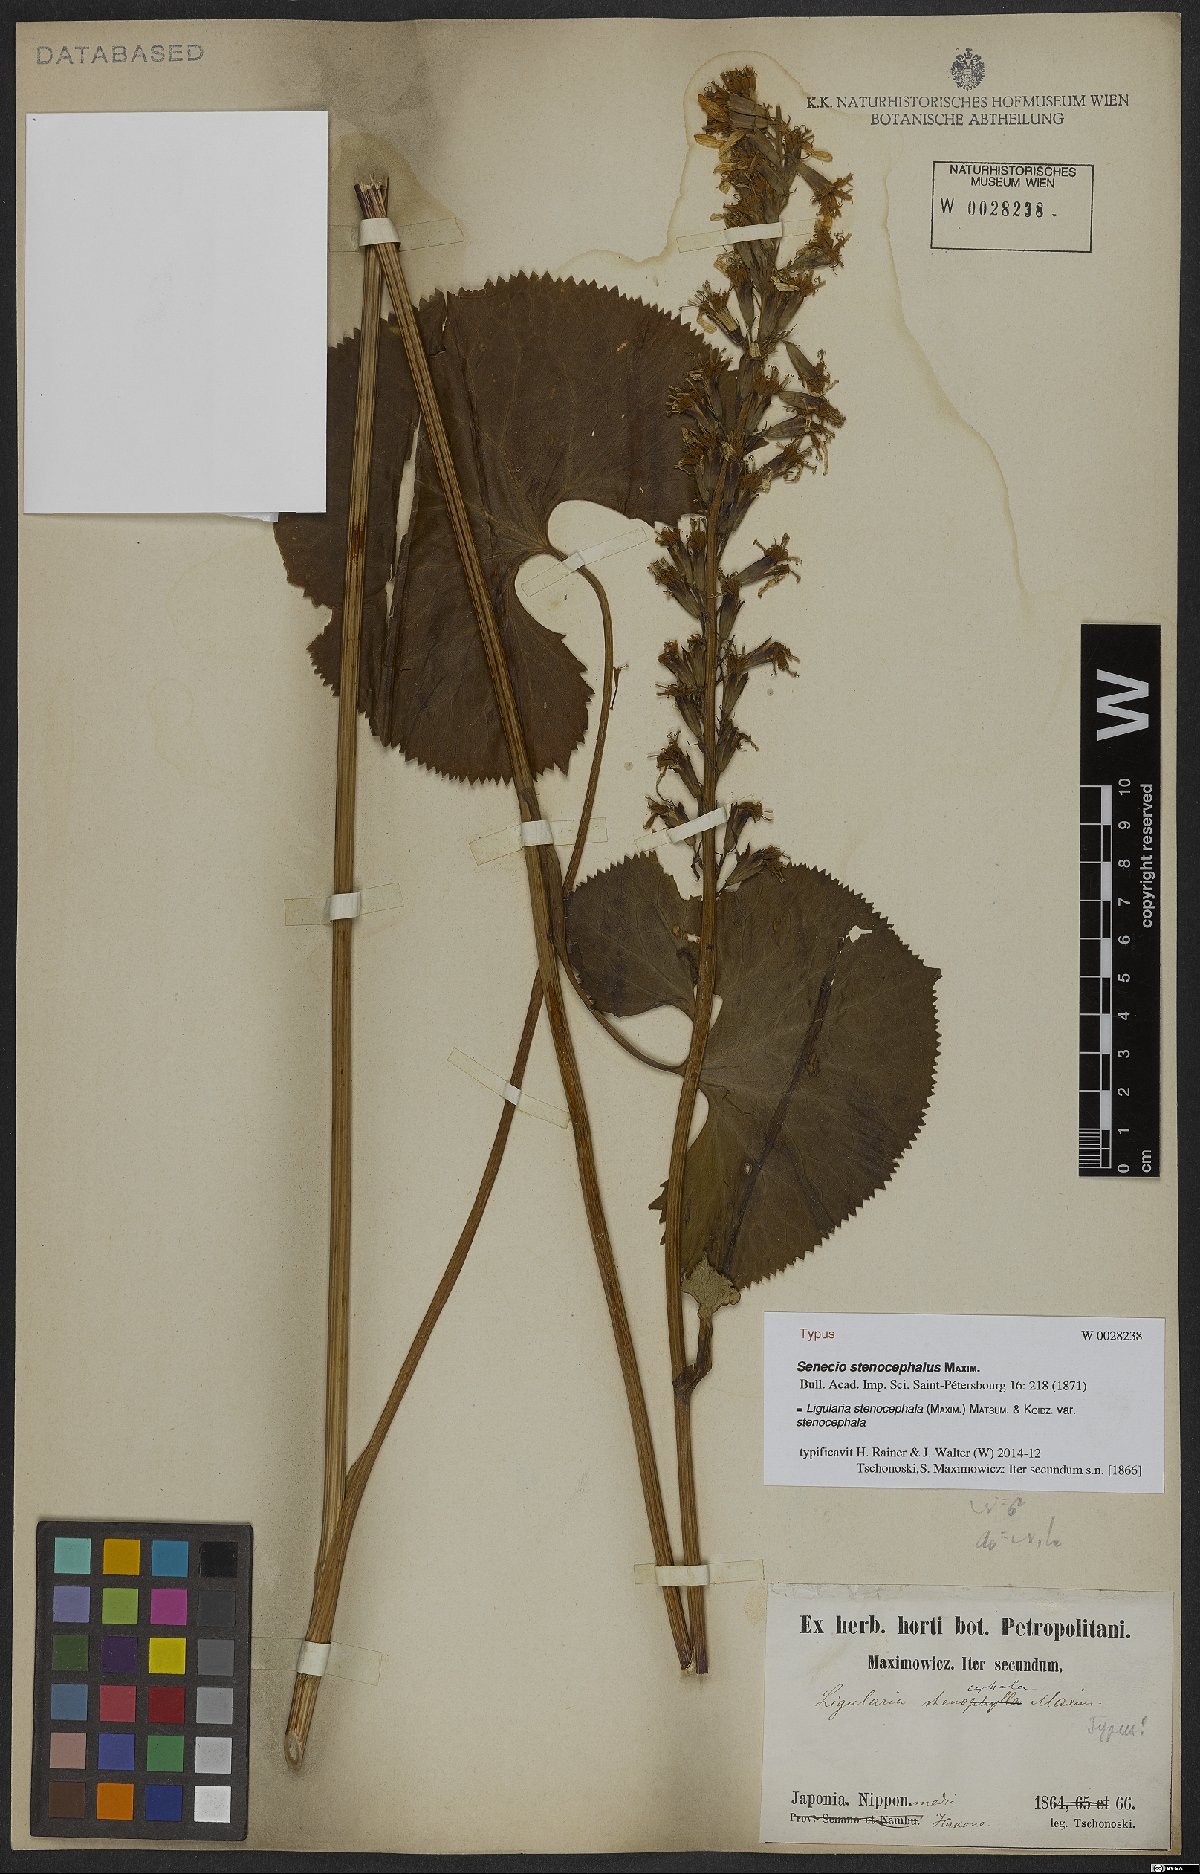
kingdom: Plantae
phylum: Tracheophyta
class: Magnoliopsida
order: Asterales
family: Asteraceae
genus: Ligularia
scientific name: Ligularia stenocephala
